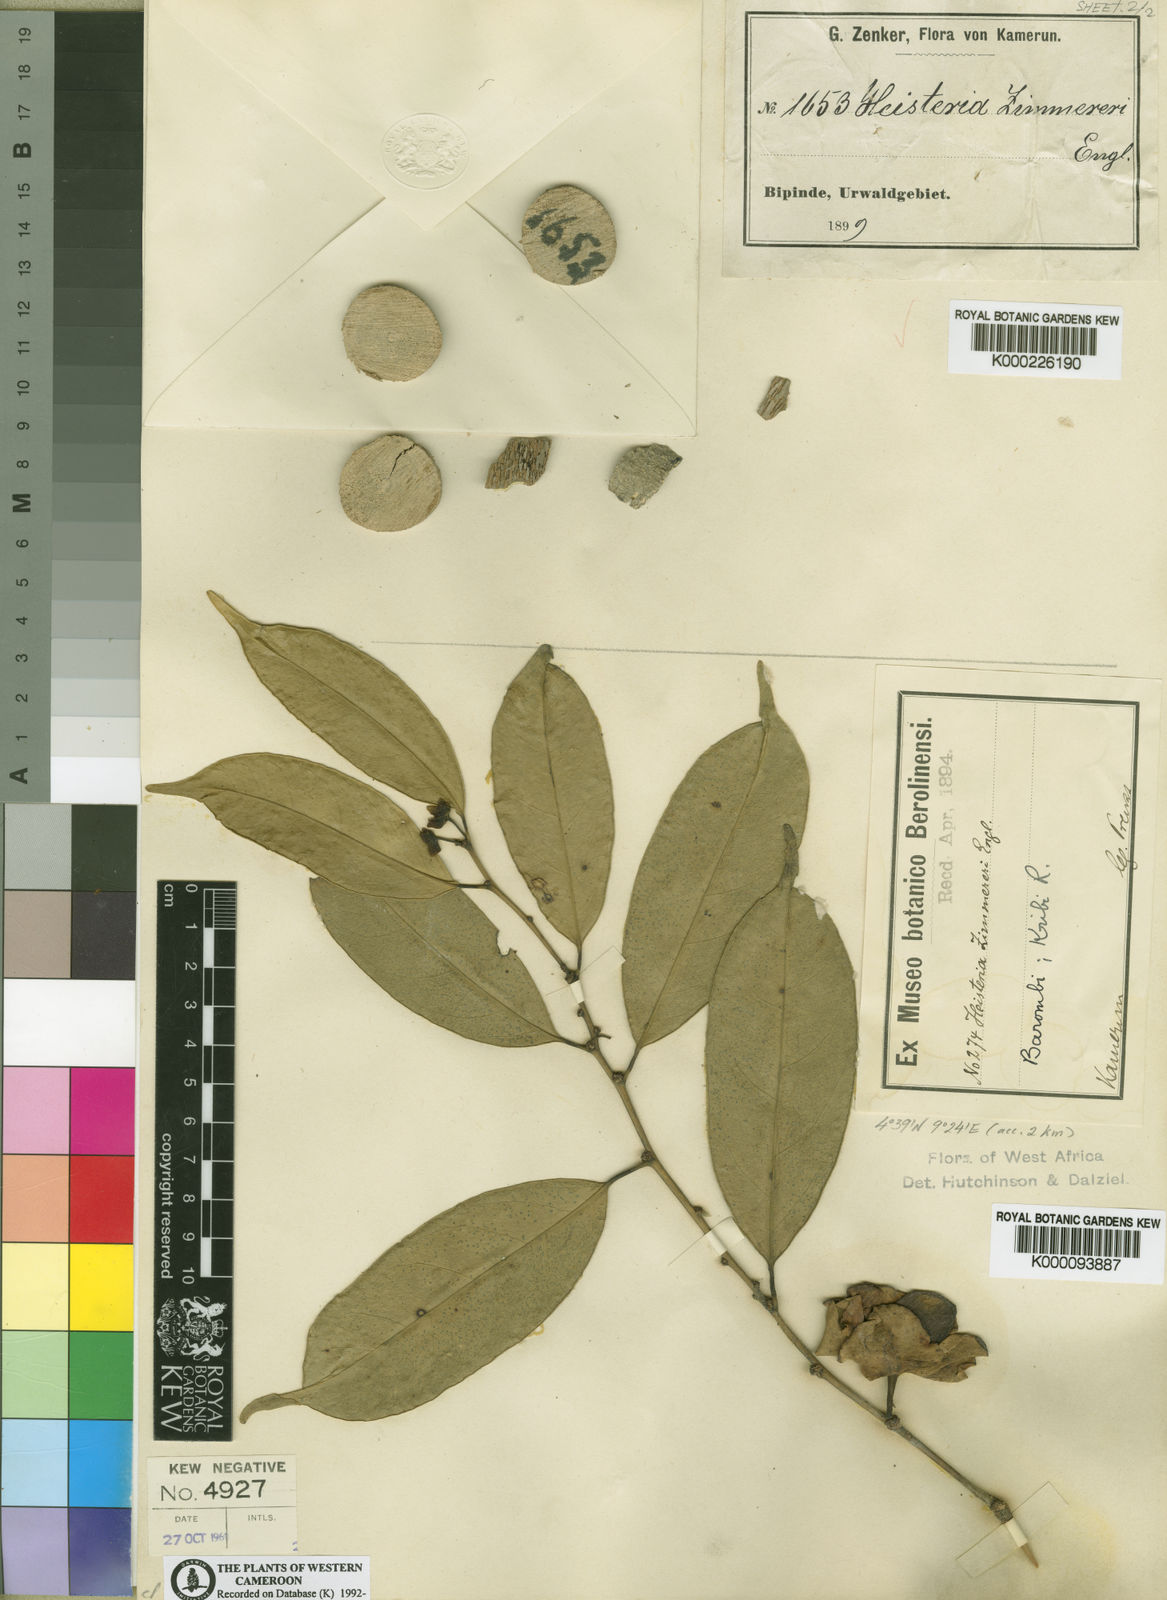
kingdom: Plantae
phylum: Tracheophyta
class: Magnoliopsida
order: Santalales
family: Erythropalaceae
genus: Heisteria
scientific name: Heisteria zimmereri
